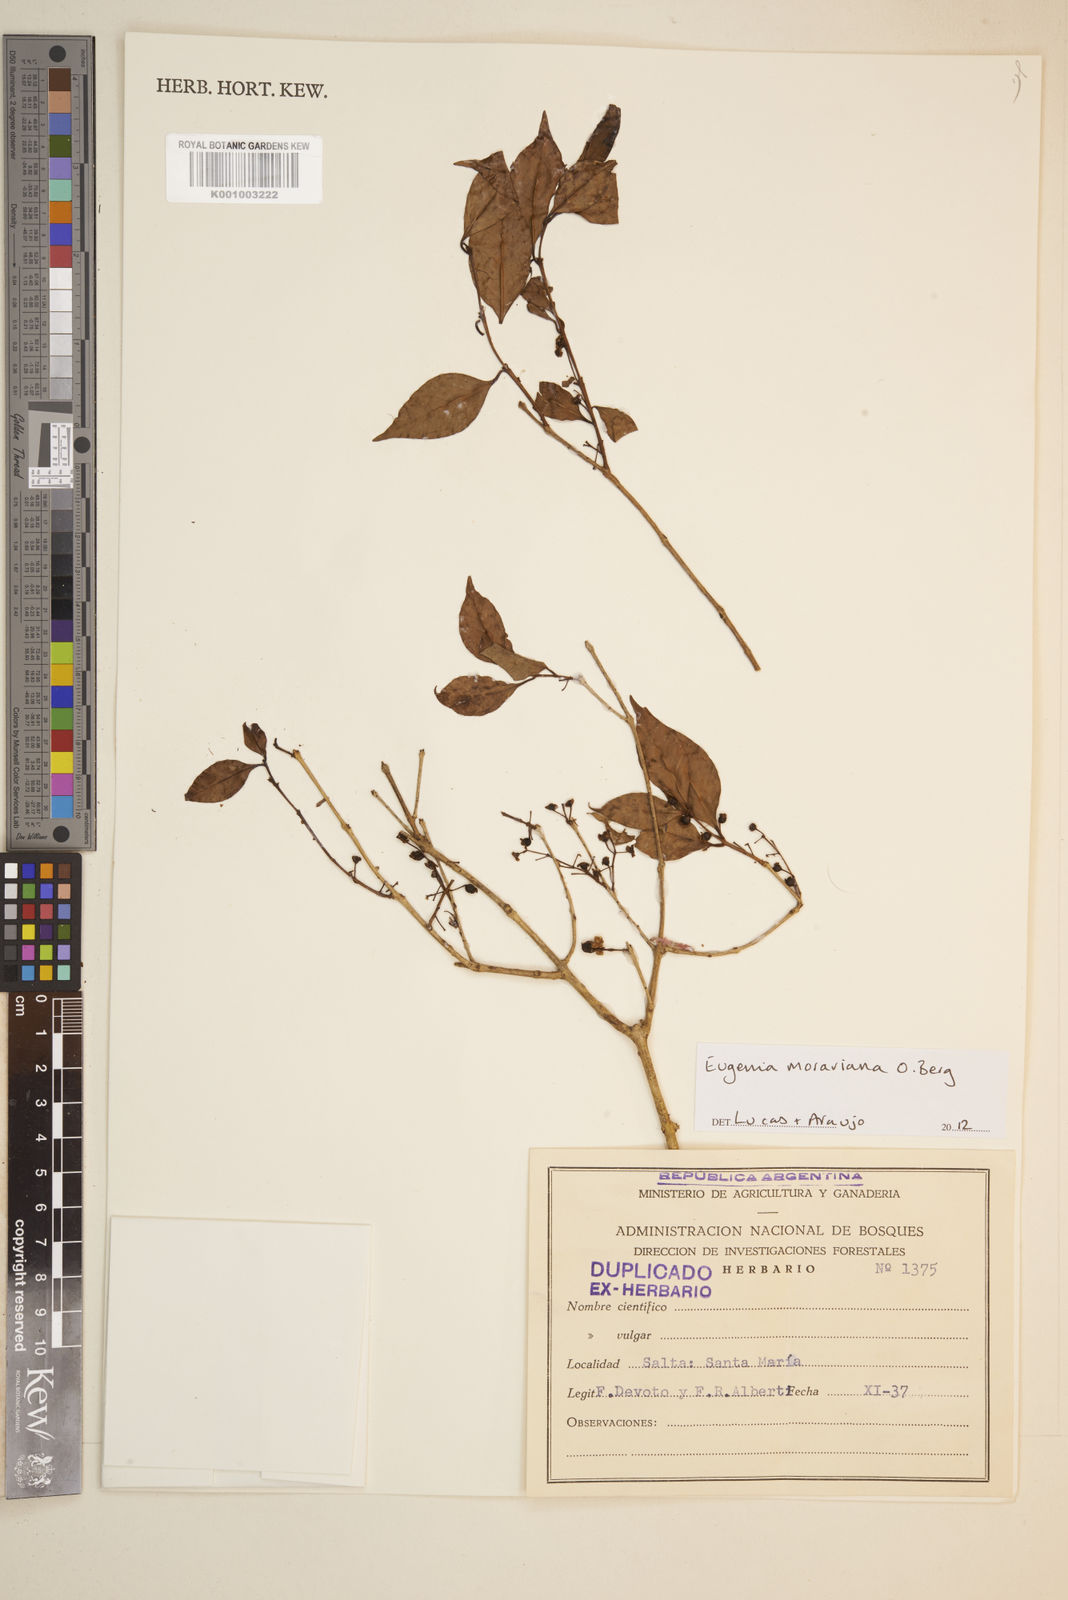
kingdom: Plantae
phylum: Tracheophyta
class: Magnoliopsida
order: Myrtales
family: Myrtaceae
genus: Eugenia
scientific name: Eugenia moraviana
